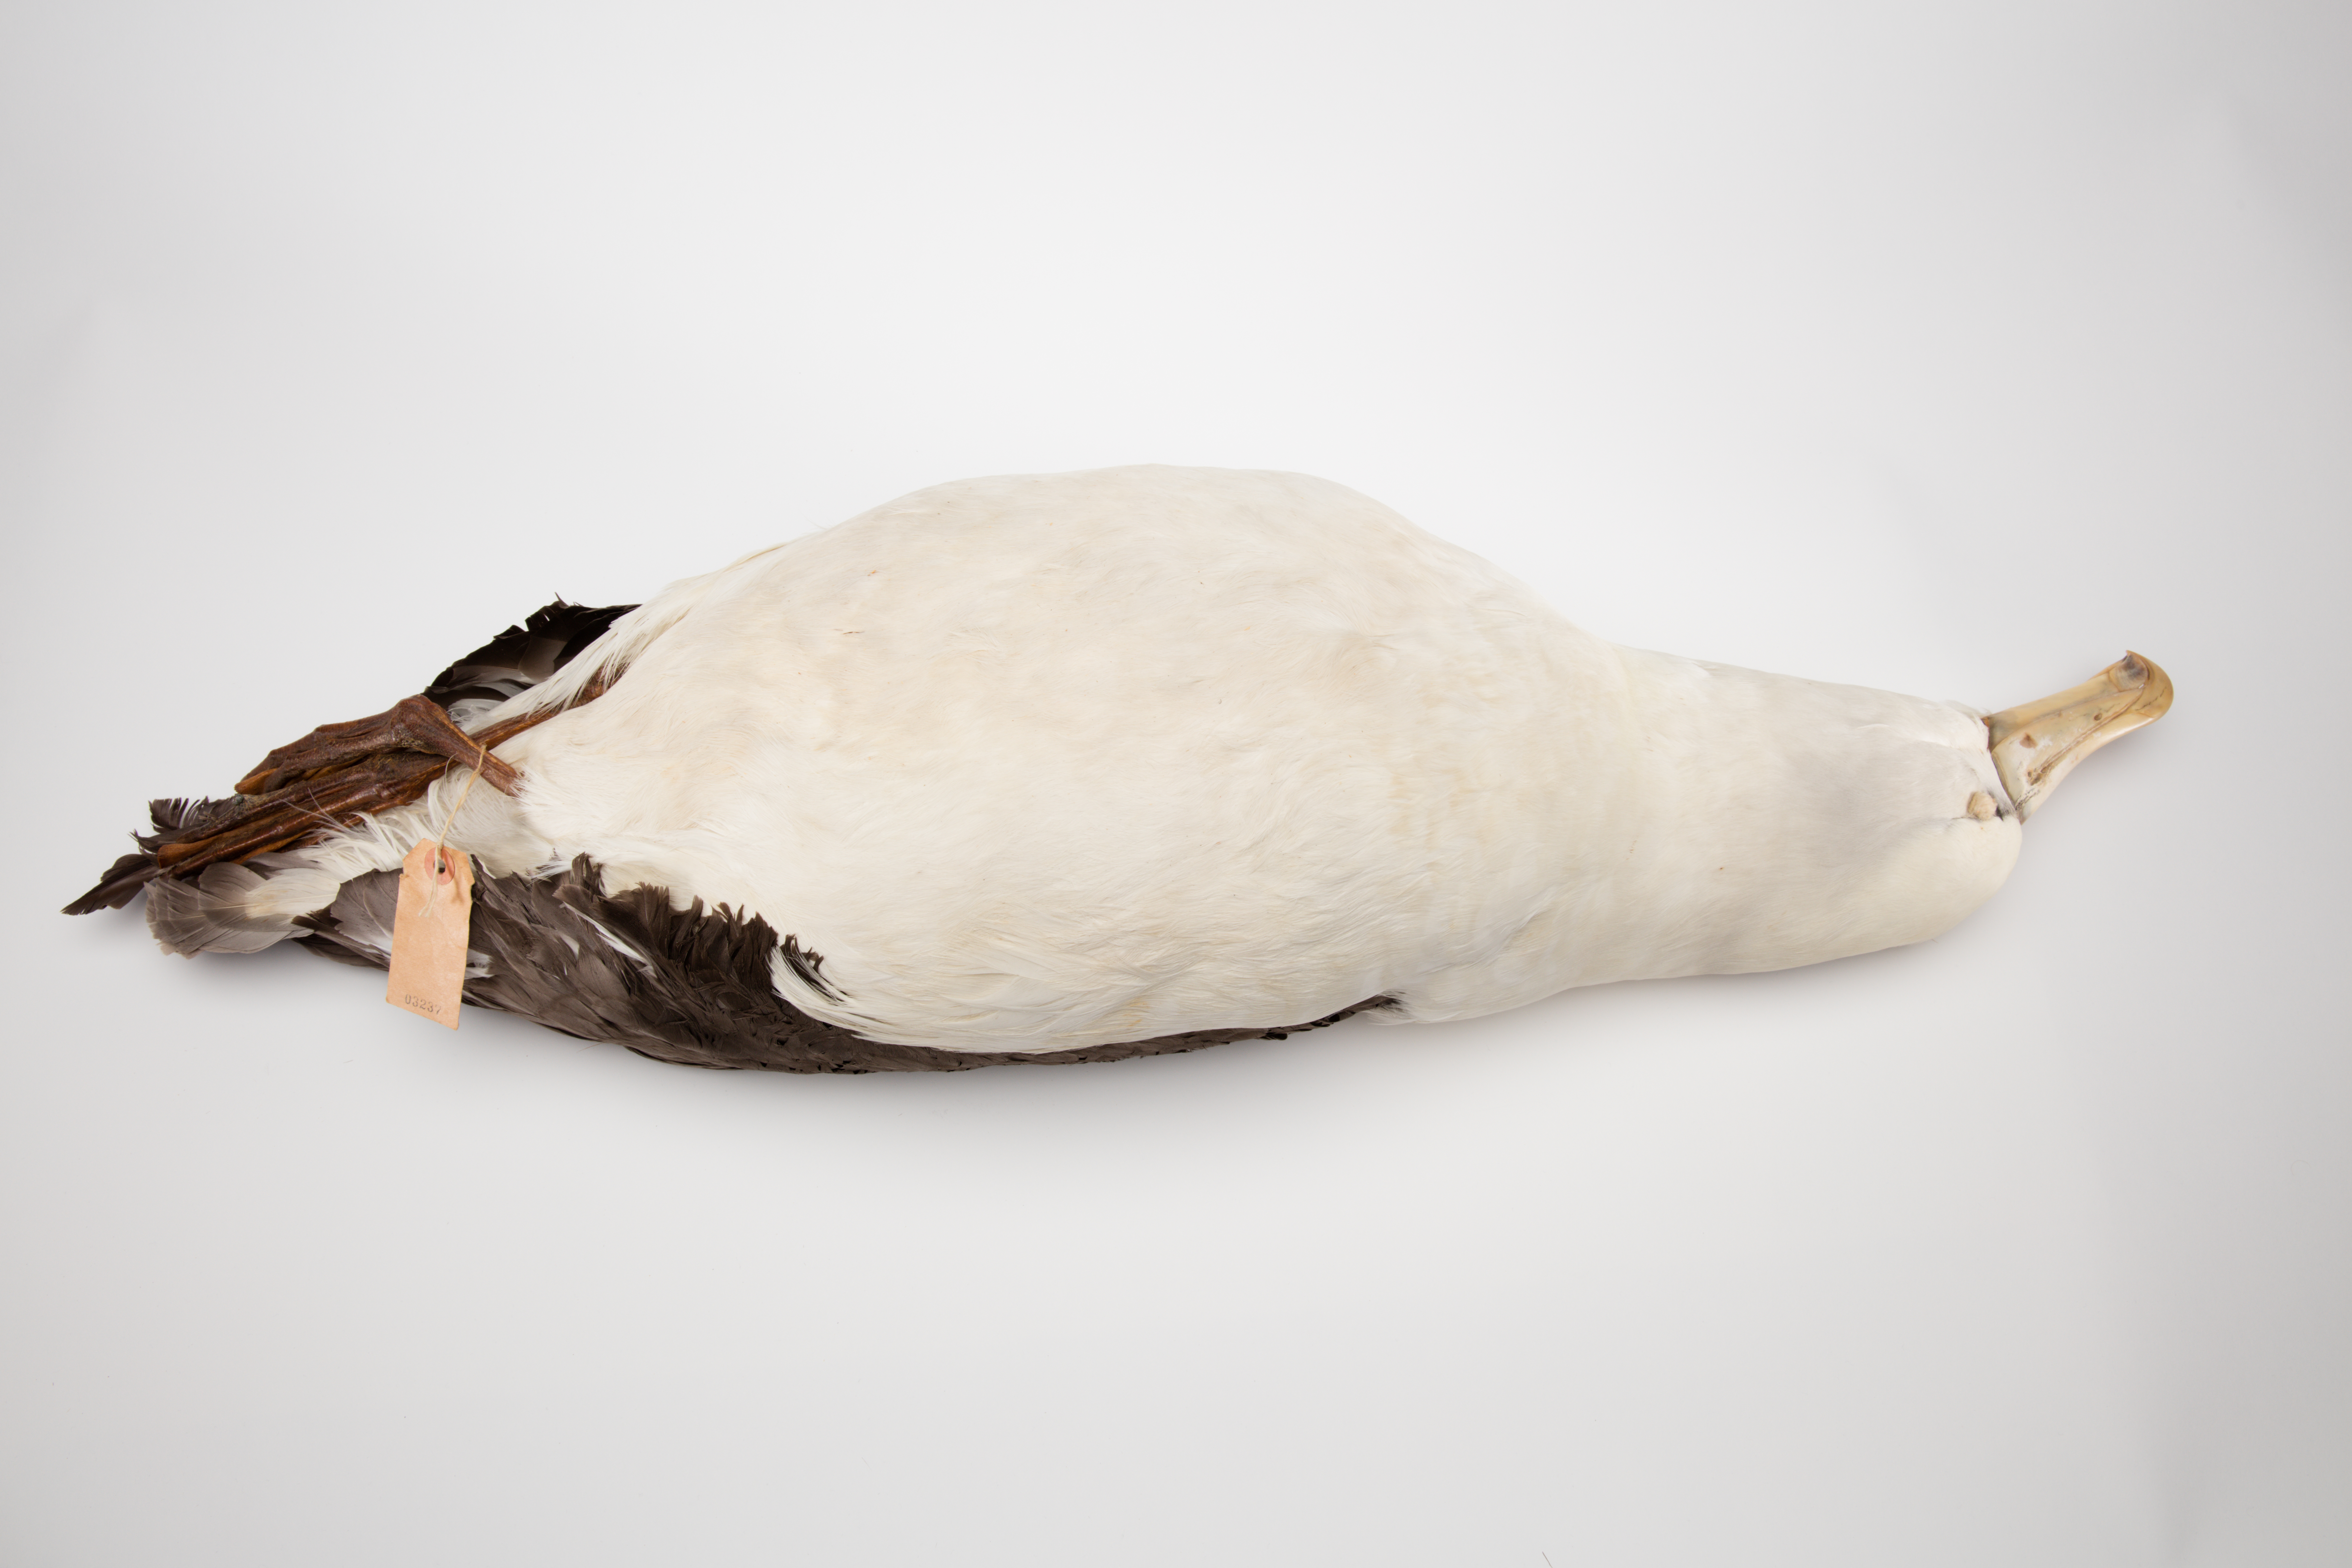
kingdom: Animalia
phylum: Chordata
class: Aves
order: Procellariiformes
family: Diomedeidae
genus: Thalassarche
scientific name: Thalassarche cauta
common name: Shy albatross
